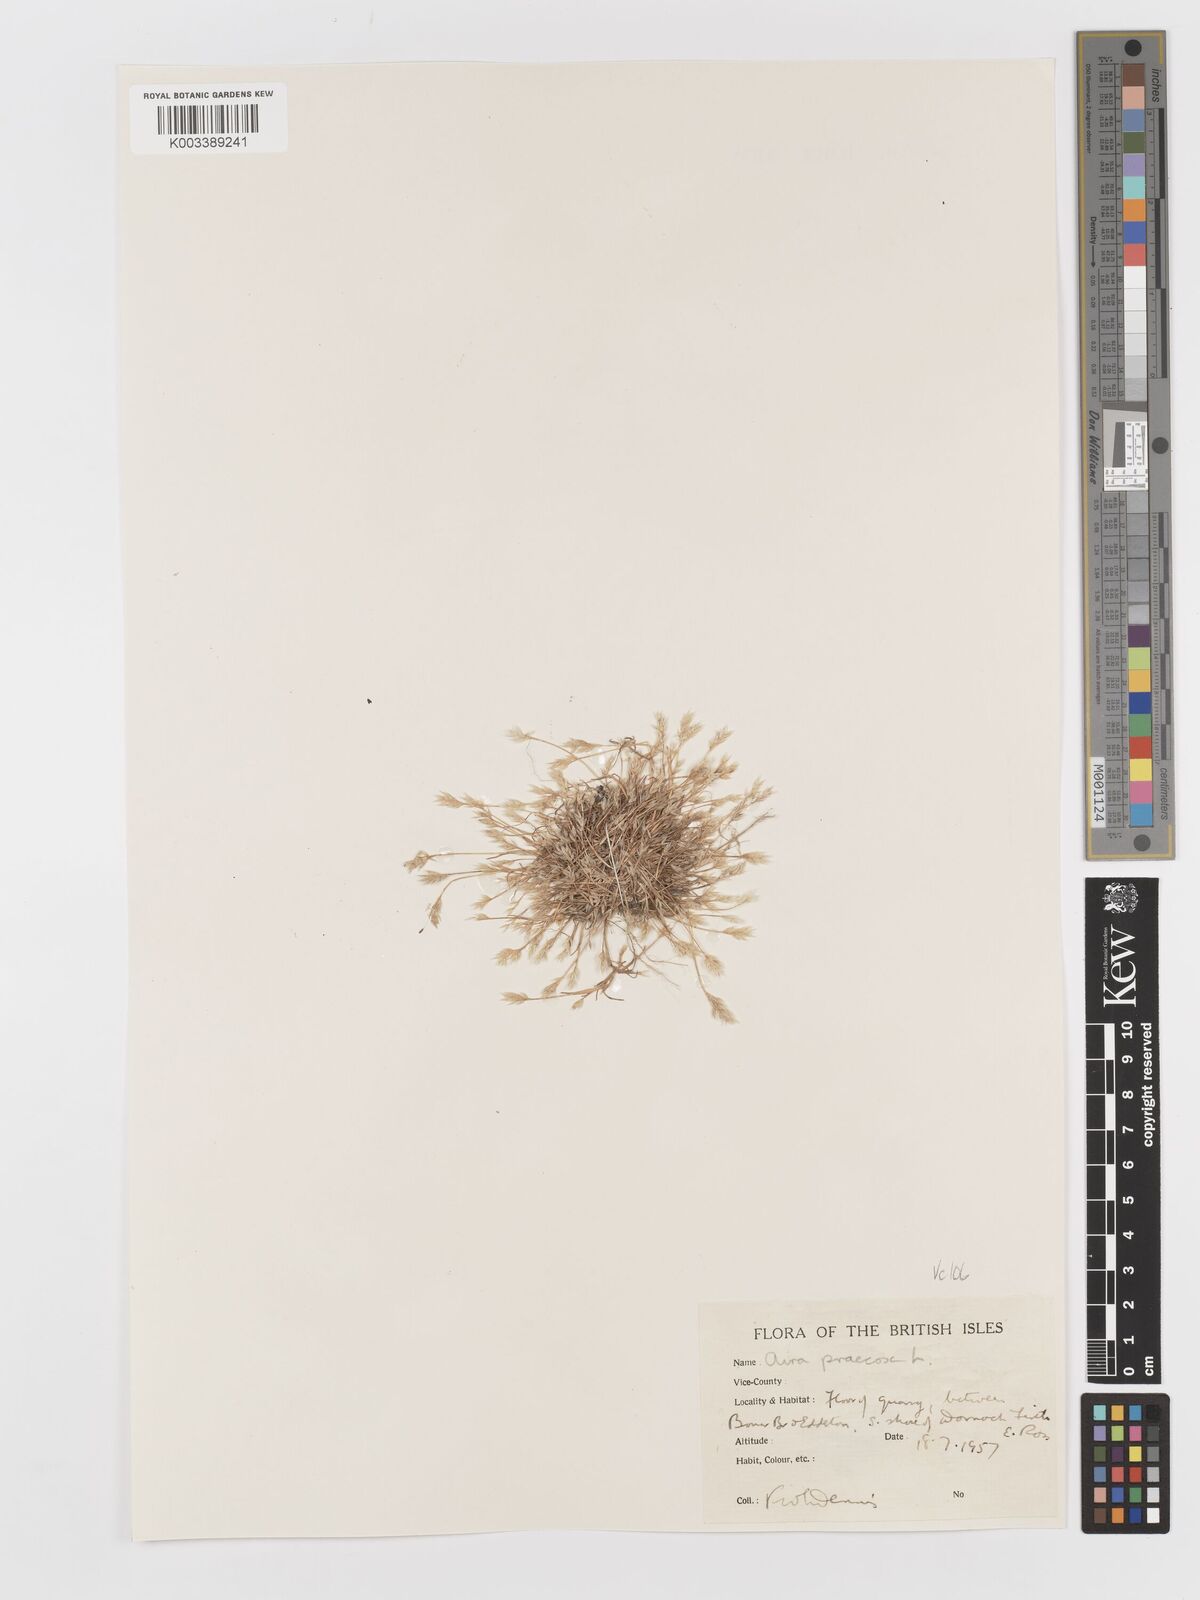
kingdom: Plantae
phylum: Tracheophyta
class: Liliopsida
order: Poales
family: Poaceae
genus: Aira
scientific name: Aira praecox
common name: Early hair-grass
